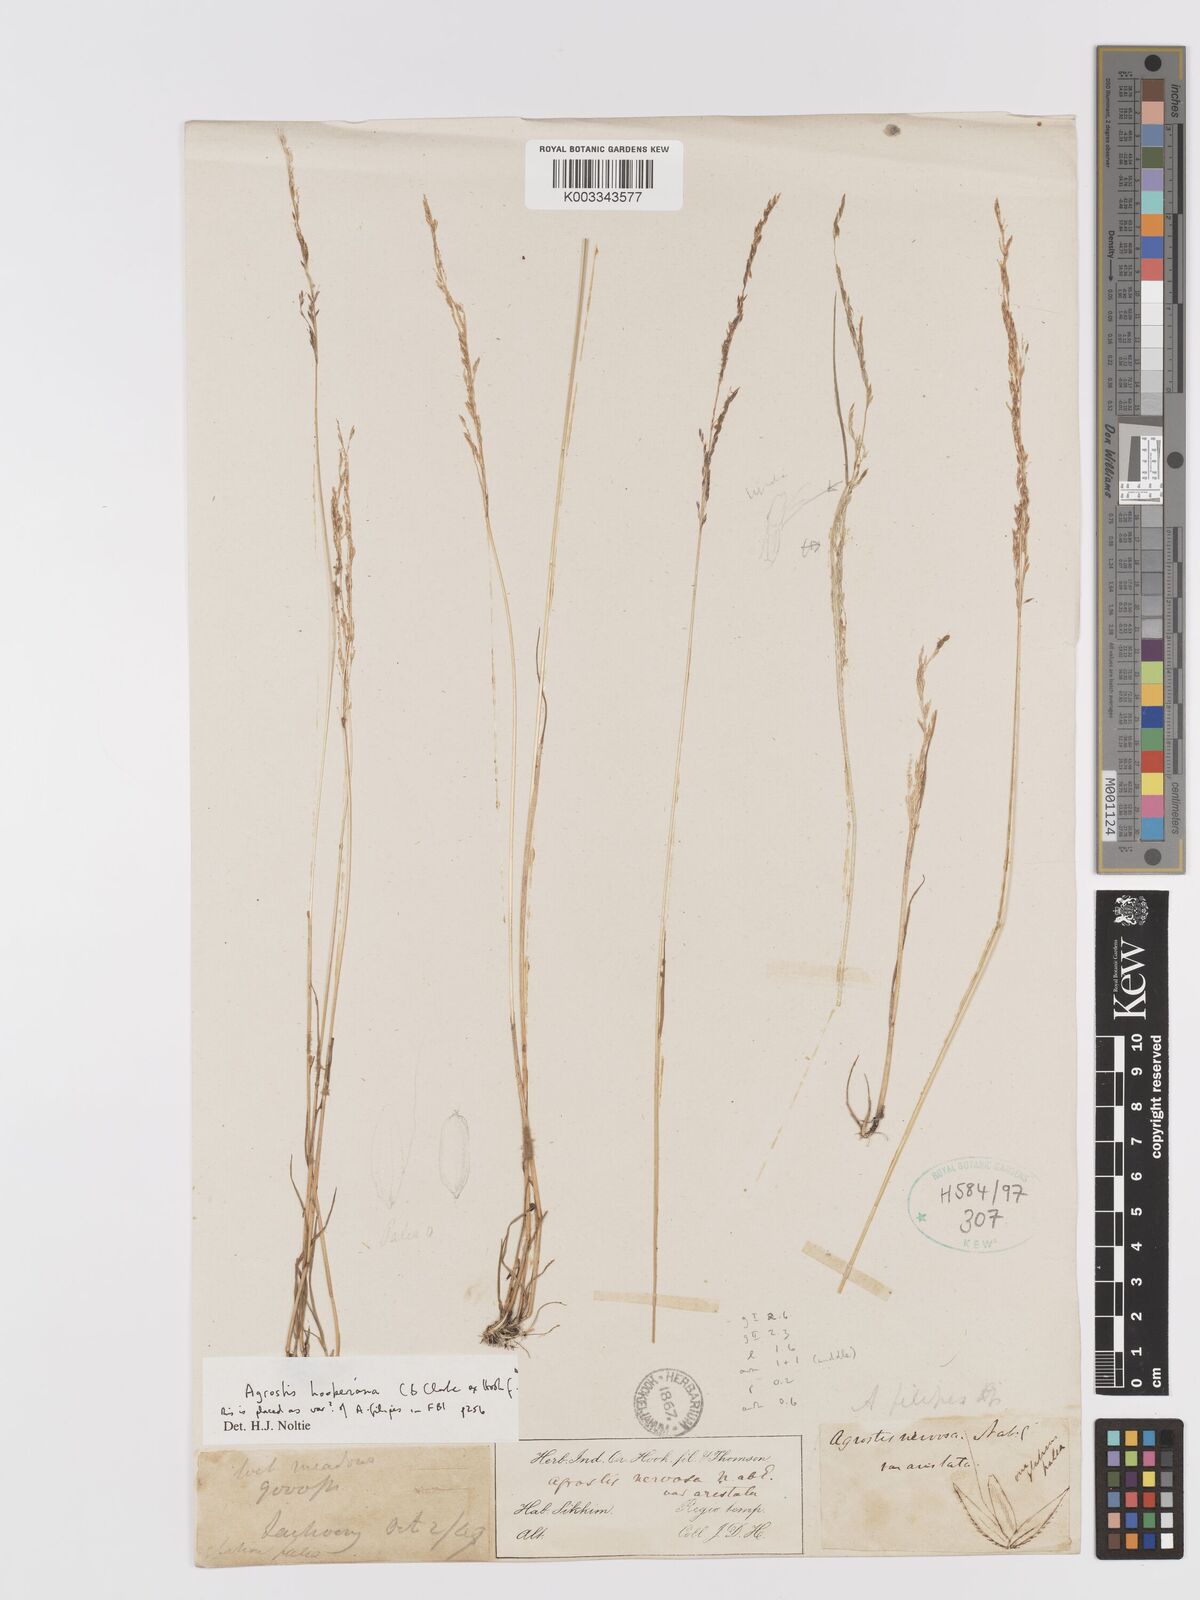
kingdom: Plantae
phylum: Tracheophyta
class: Liliopsida
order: Poales
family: Poaceae
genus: Agrostis
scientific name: Agrostis hookeriana
